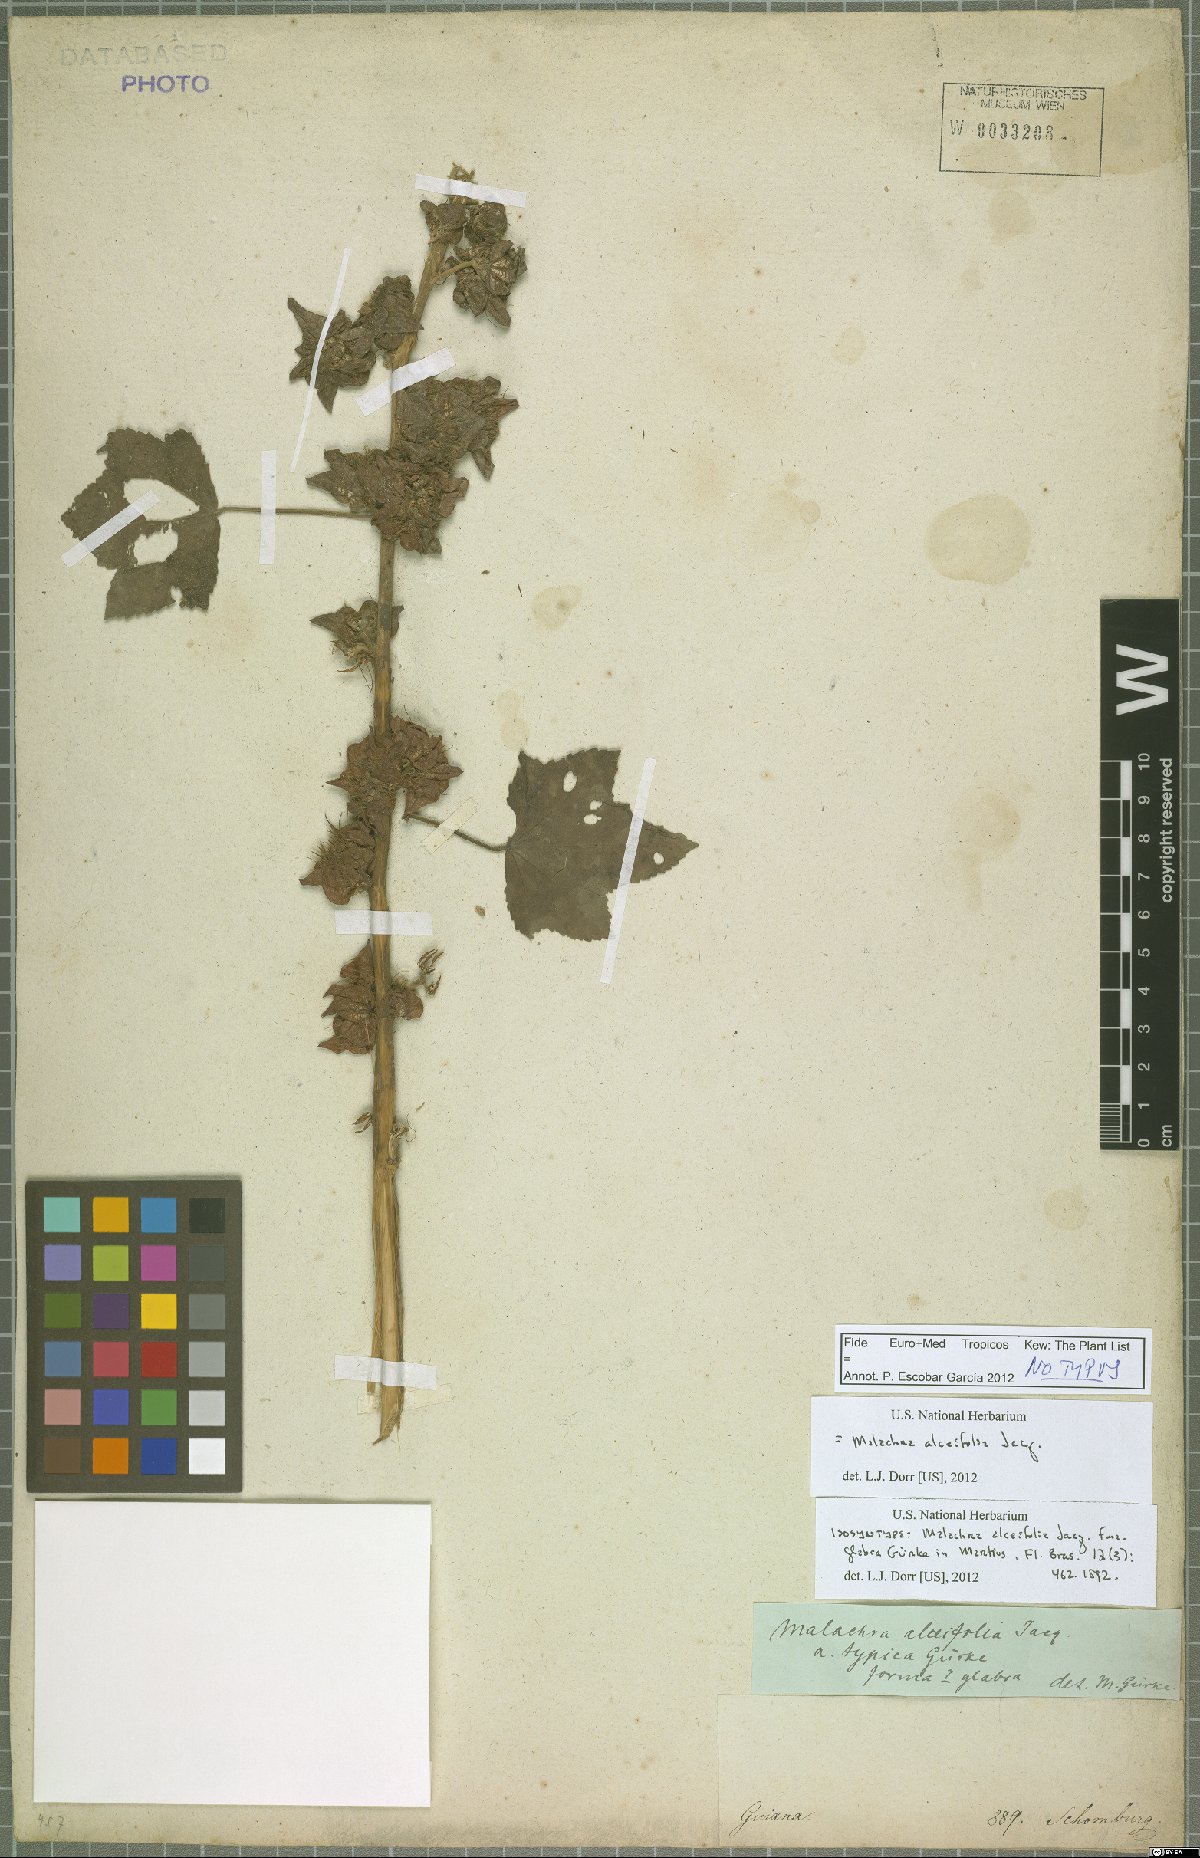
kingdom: Plantae
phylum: Tracheophyta
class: Magnoliopsida
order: Malvales
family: Malvaceae
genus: Malachra
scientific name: Malachra alceifolia
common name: Yellow leafbract
